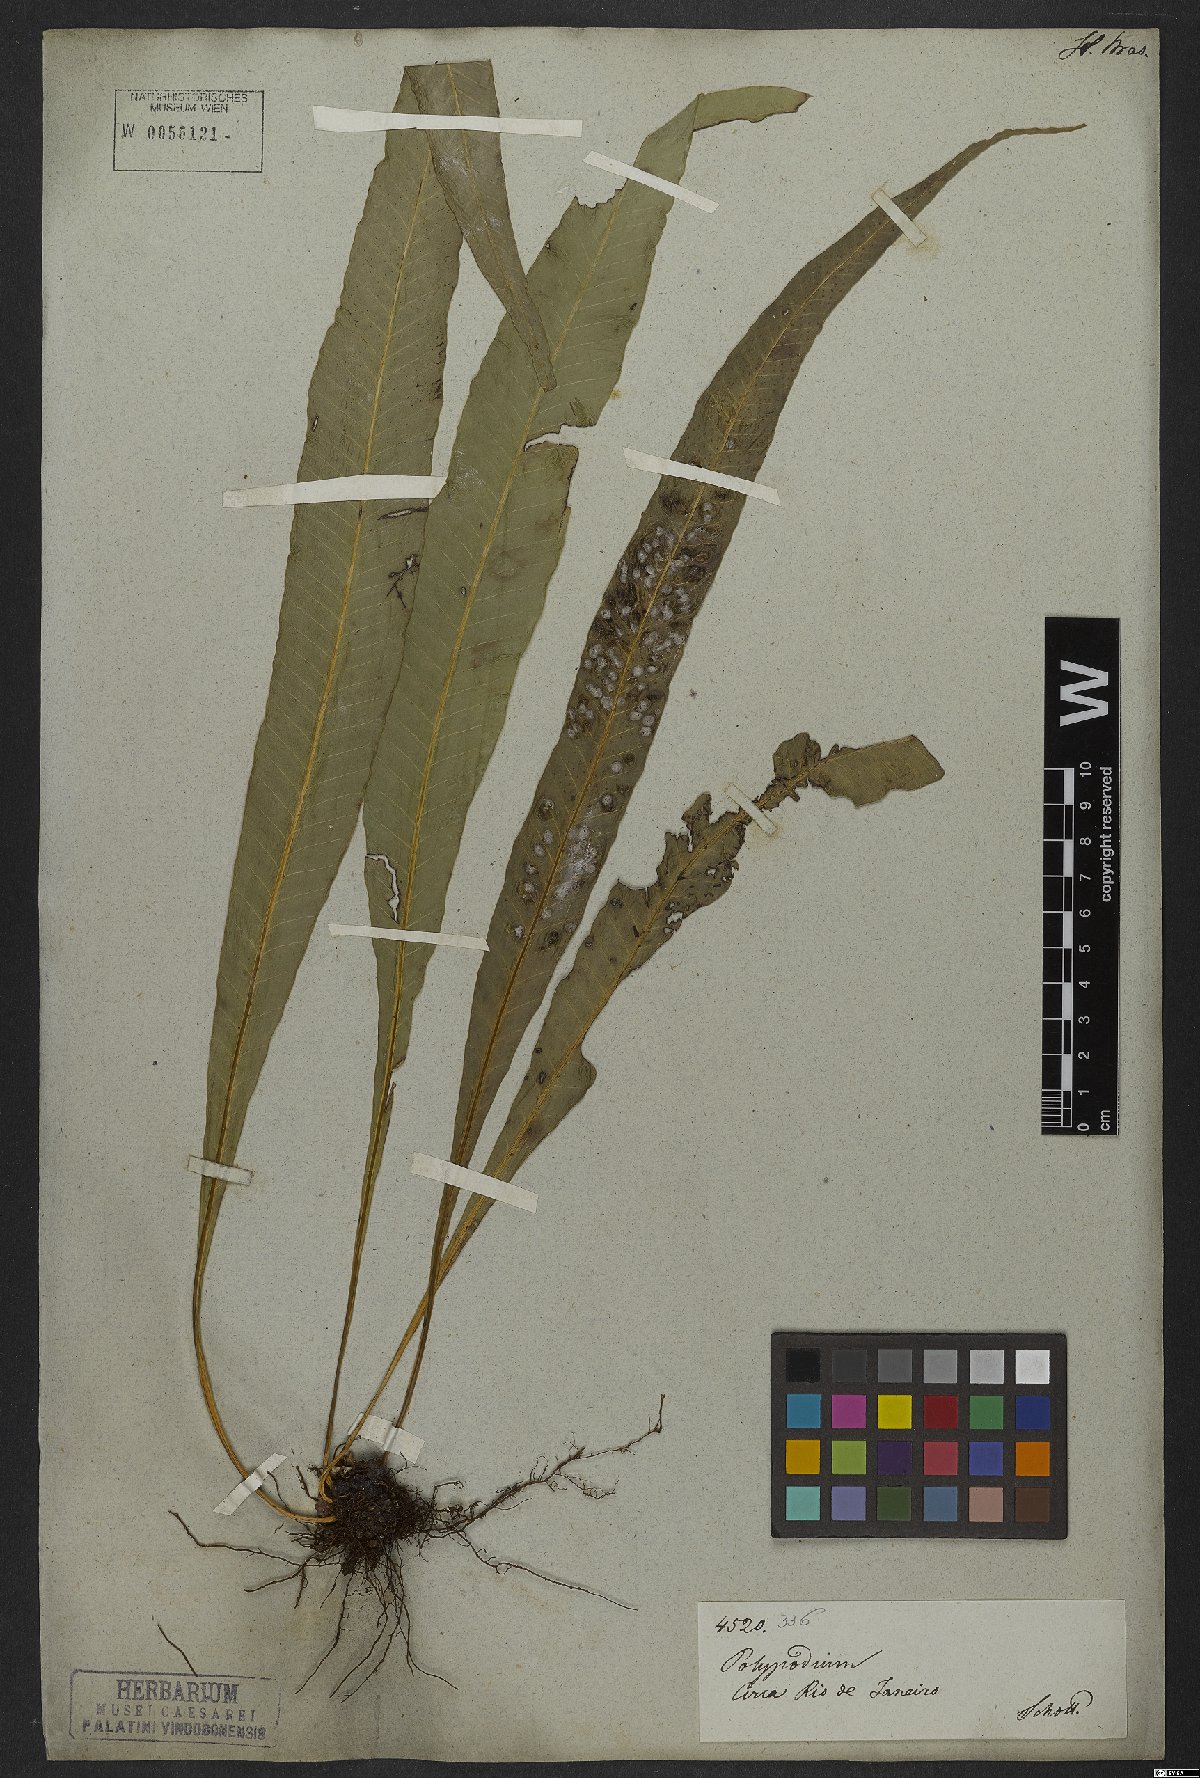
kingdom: Plantae
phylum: Tracheophyta
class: Polypodiopsida
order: Polypodiales
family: Polypodiaceae
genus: Campyloneurum
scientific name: Campyloneurum phyllitidis
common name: Cow-tongue fern
